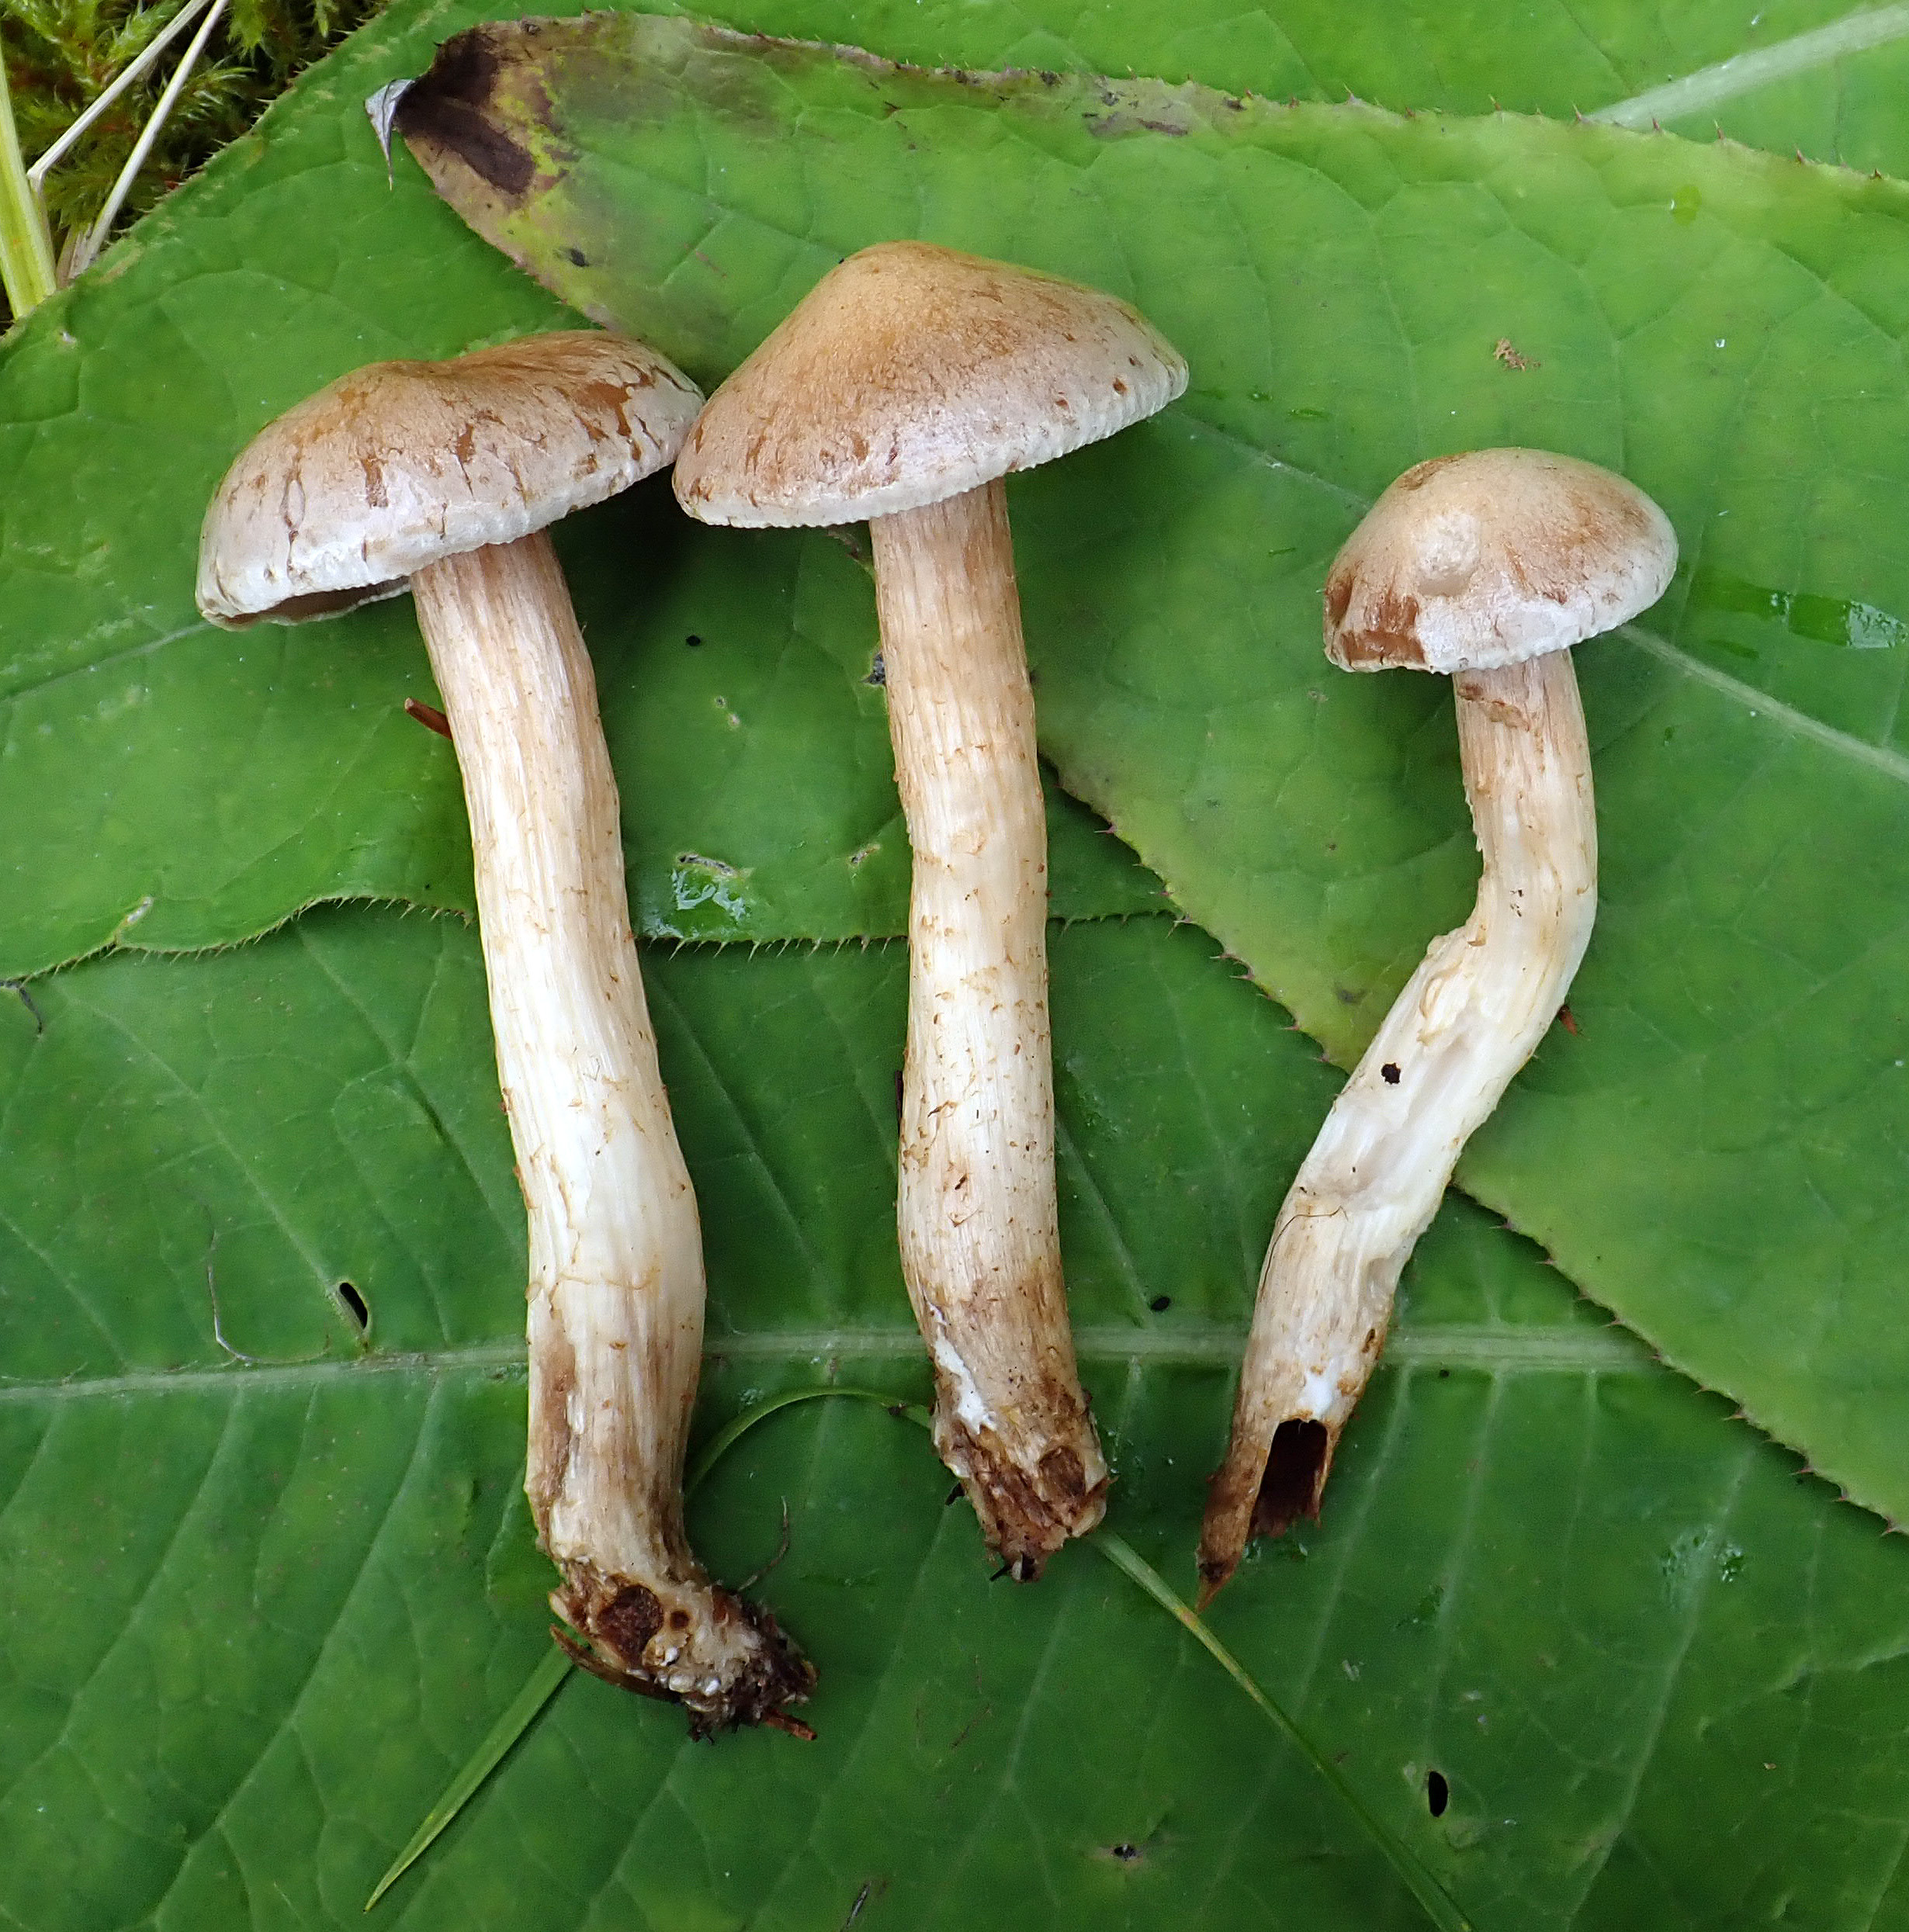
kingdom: Fungi
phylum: Basidiomycota
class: Agaricomycetes
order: Agaricales
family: Hymenogastraceae
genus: Hebeloma
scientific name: Hebeloma circinans
